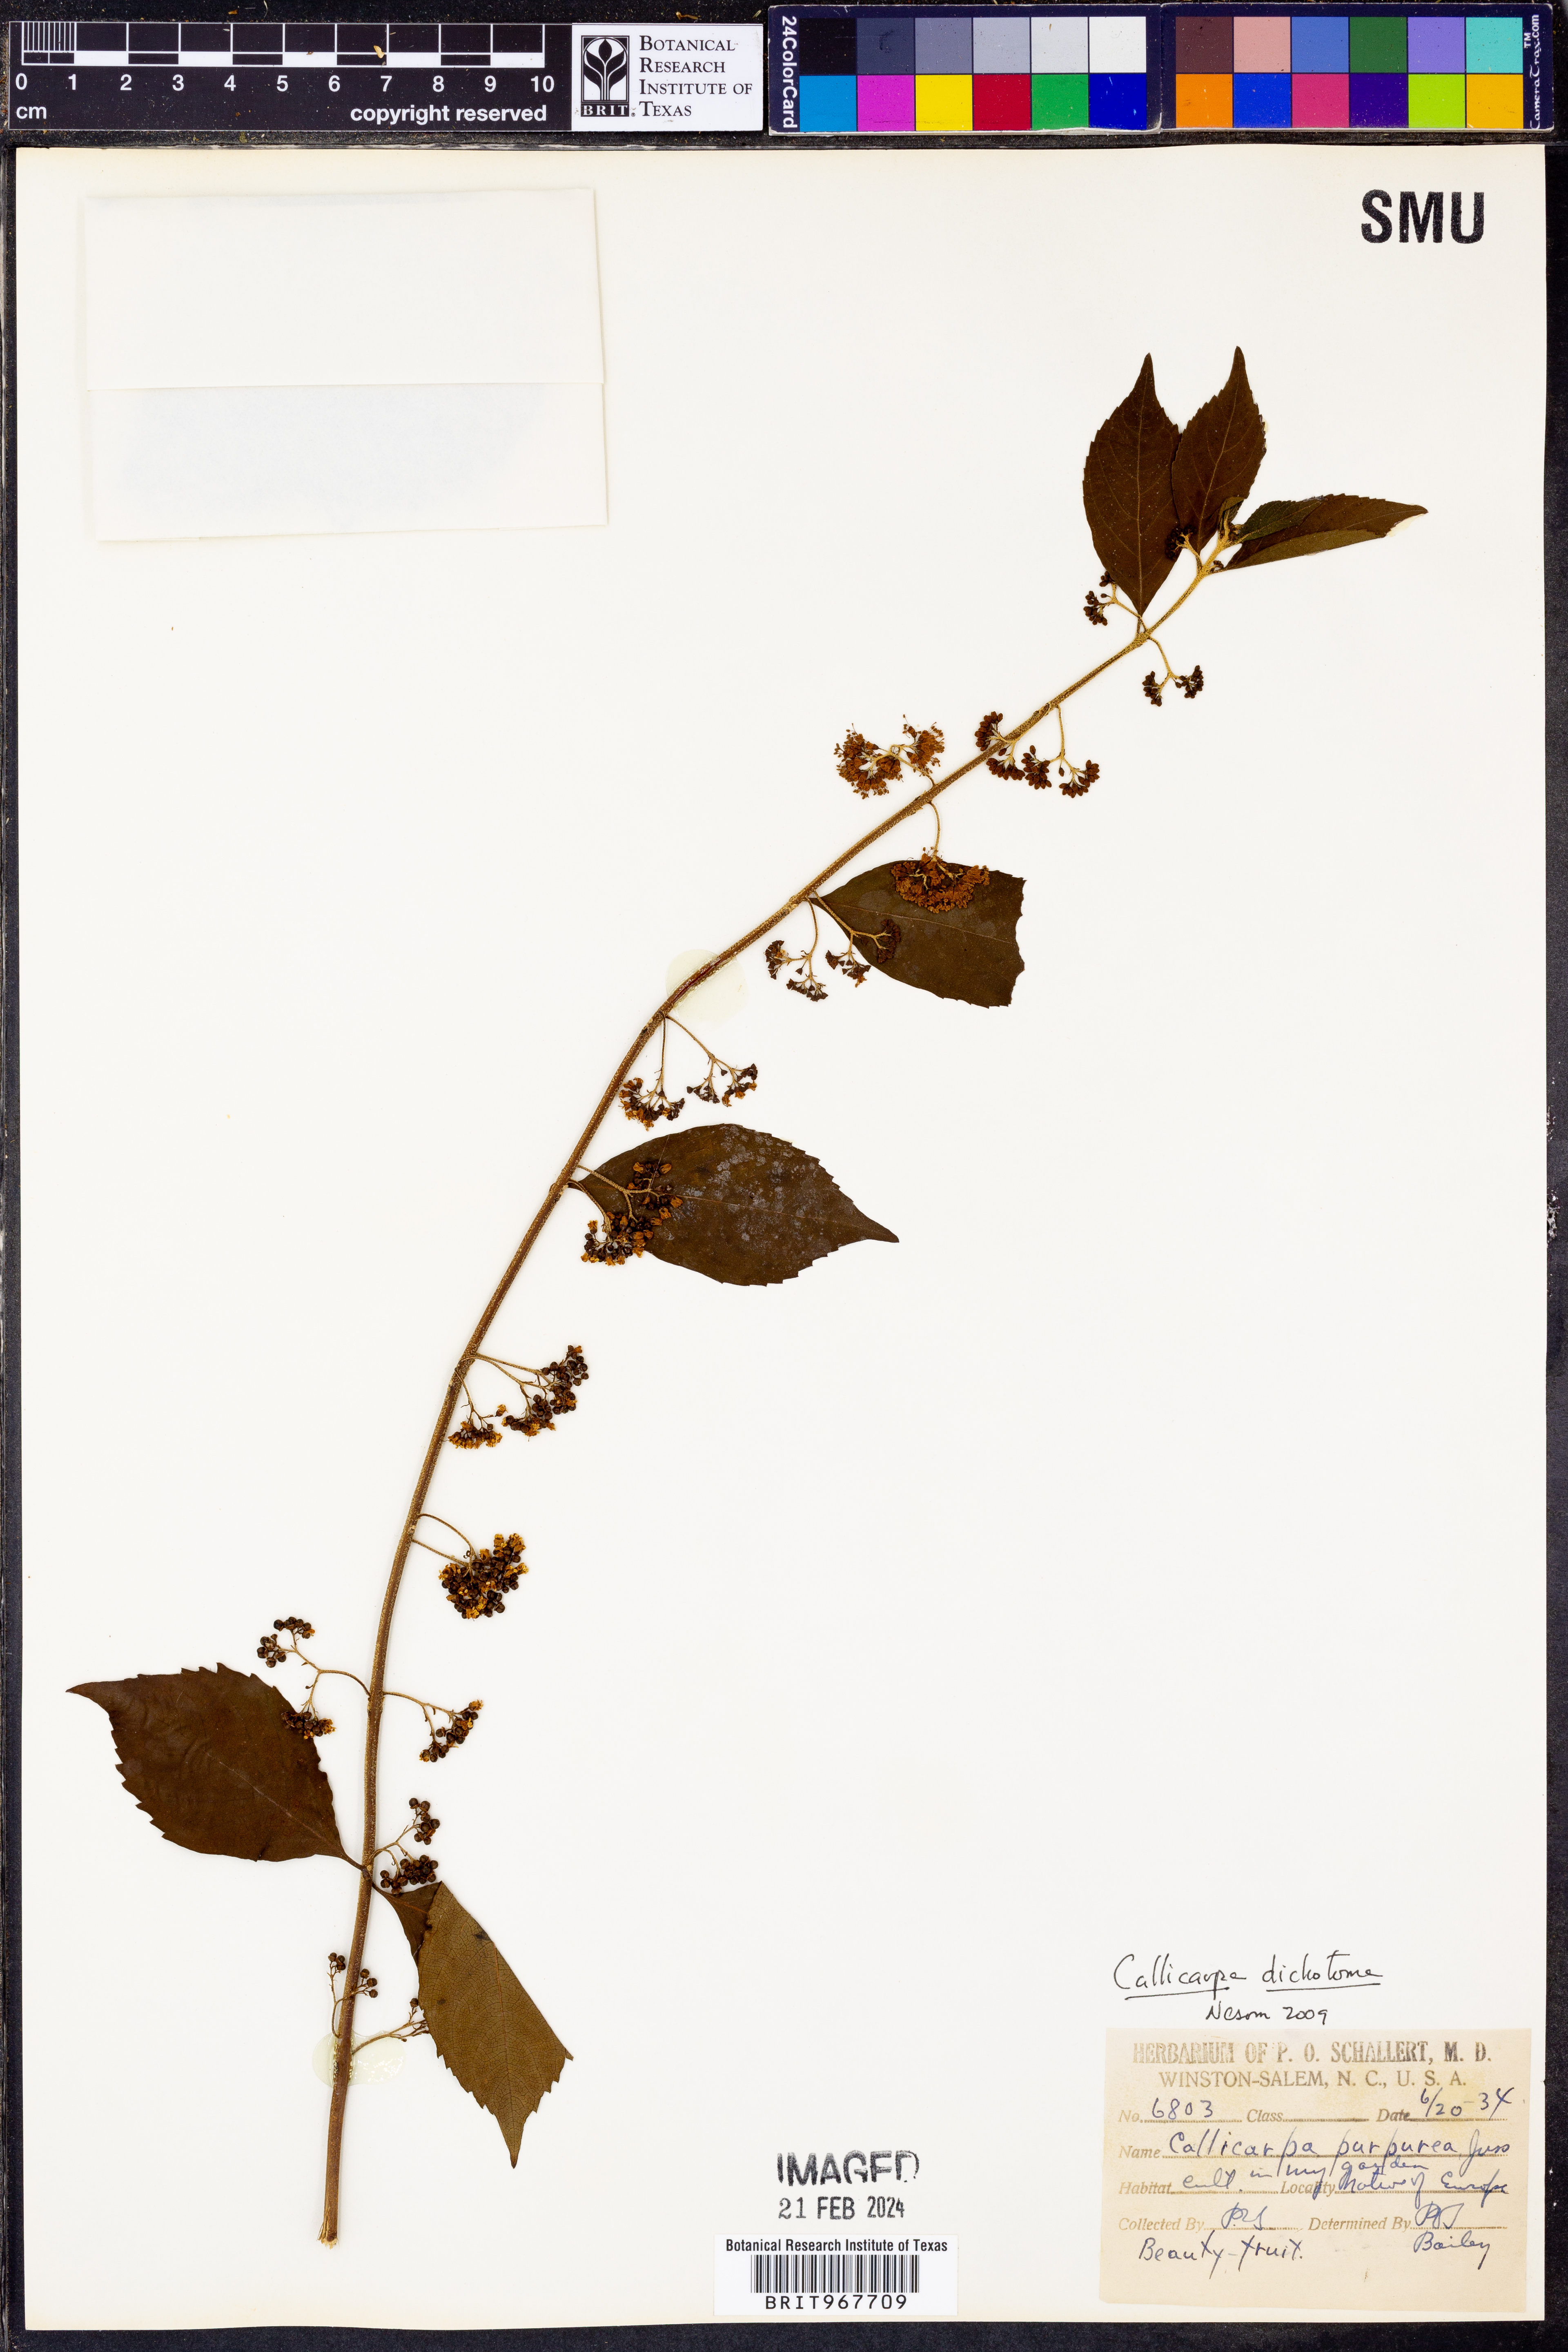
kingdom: Plantae
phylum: Tracheophyta
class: Magnoliopsida
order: Lamiales
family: Lamiaceae
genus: Callicarpa
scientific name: Callicarpa
